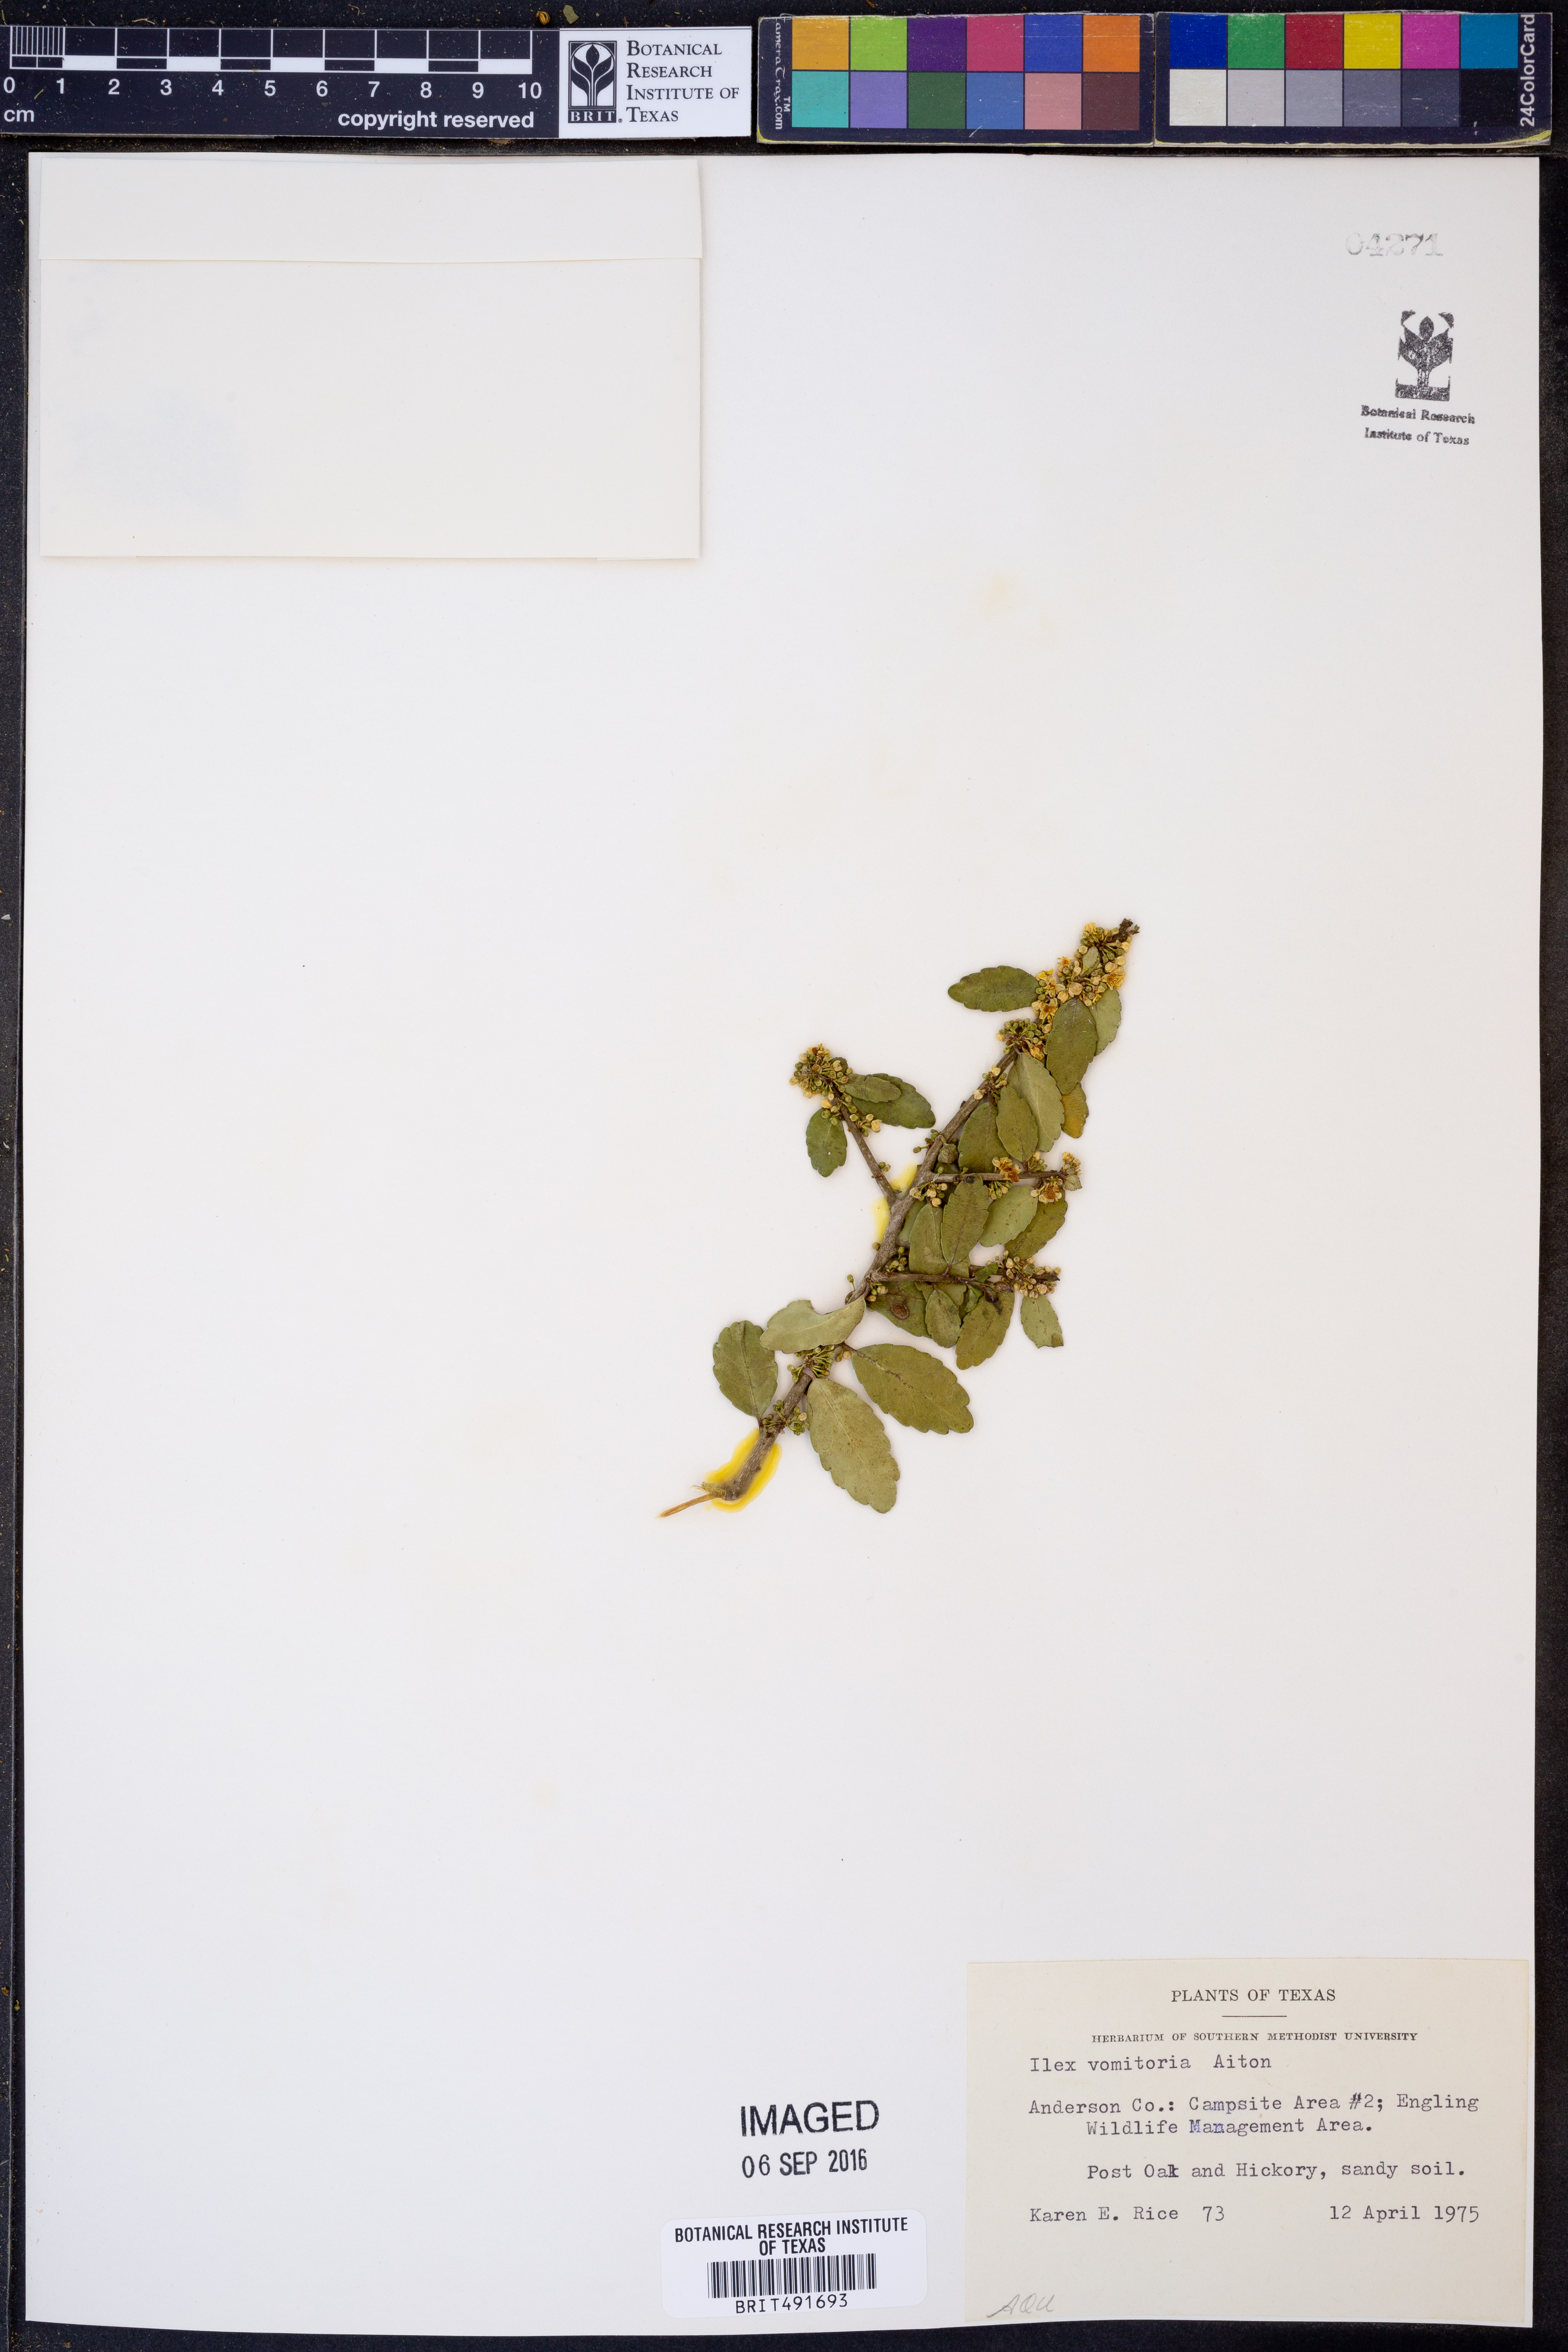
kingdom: Plantae
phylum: Tracheophyta
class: Magnoliopsida
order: Aquifoliales
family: Aquifoliaceae
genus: Ilex
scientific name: Ilex vomitoria
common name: Yaupon holly
